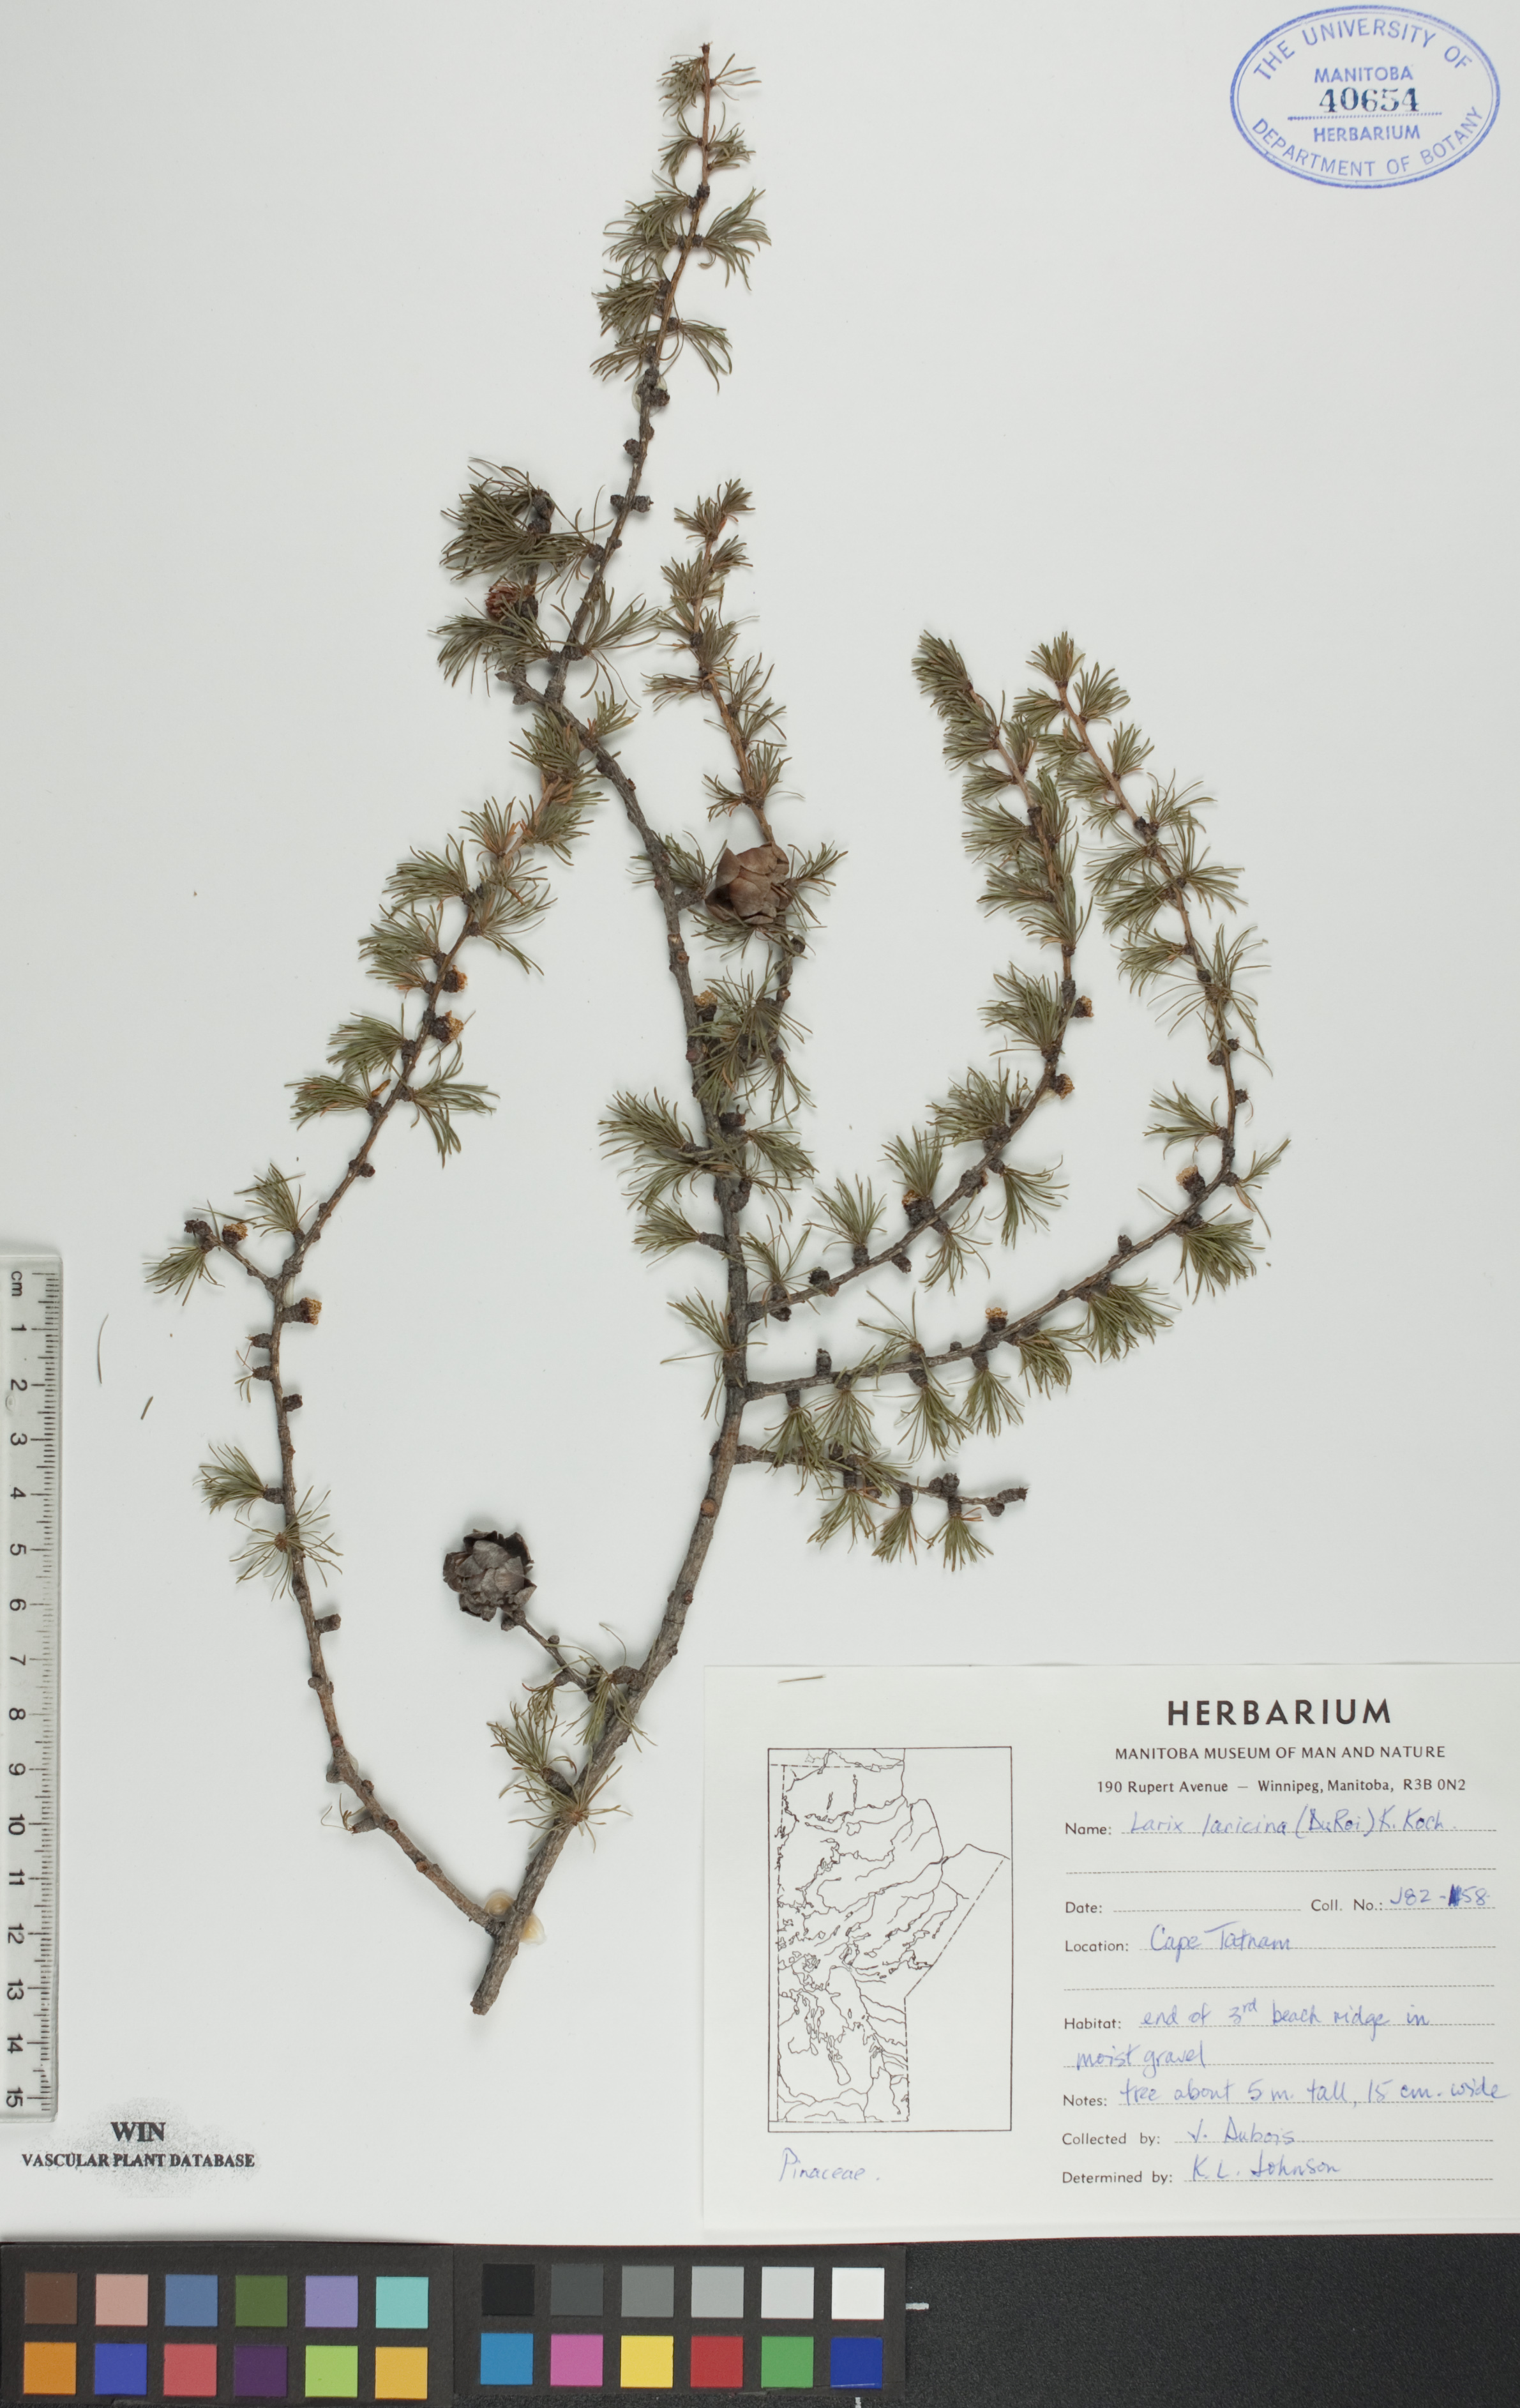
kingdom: Plantae
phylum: Tracheophyta
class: Pinopsida
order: Pinales
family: Pinaceae
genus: Larix
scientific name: Larix laricina
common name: American larch
